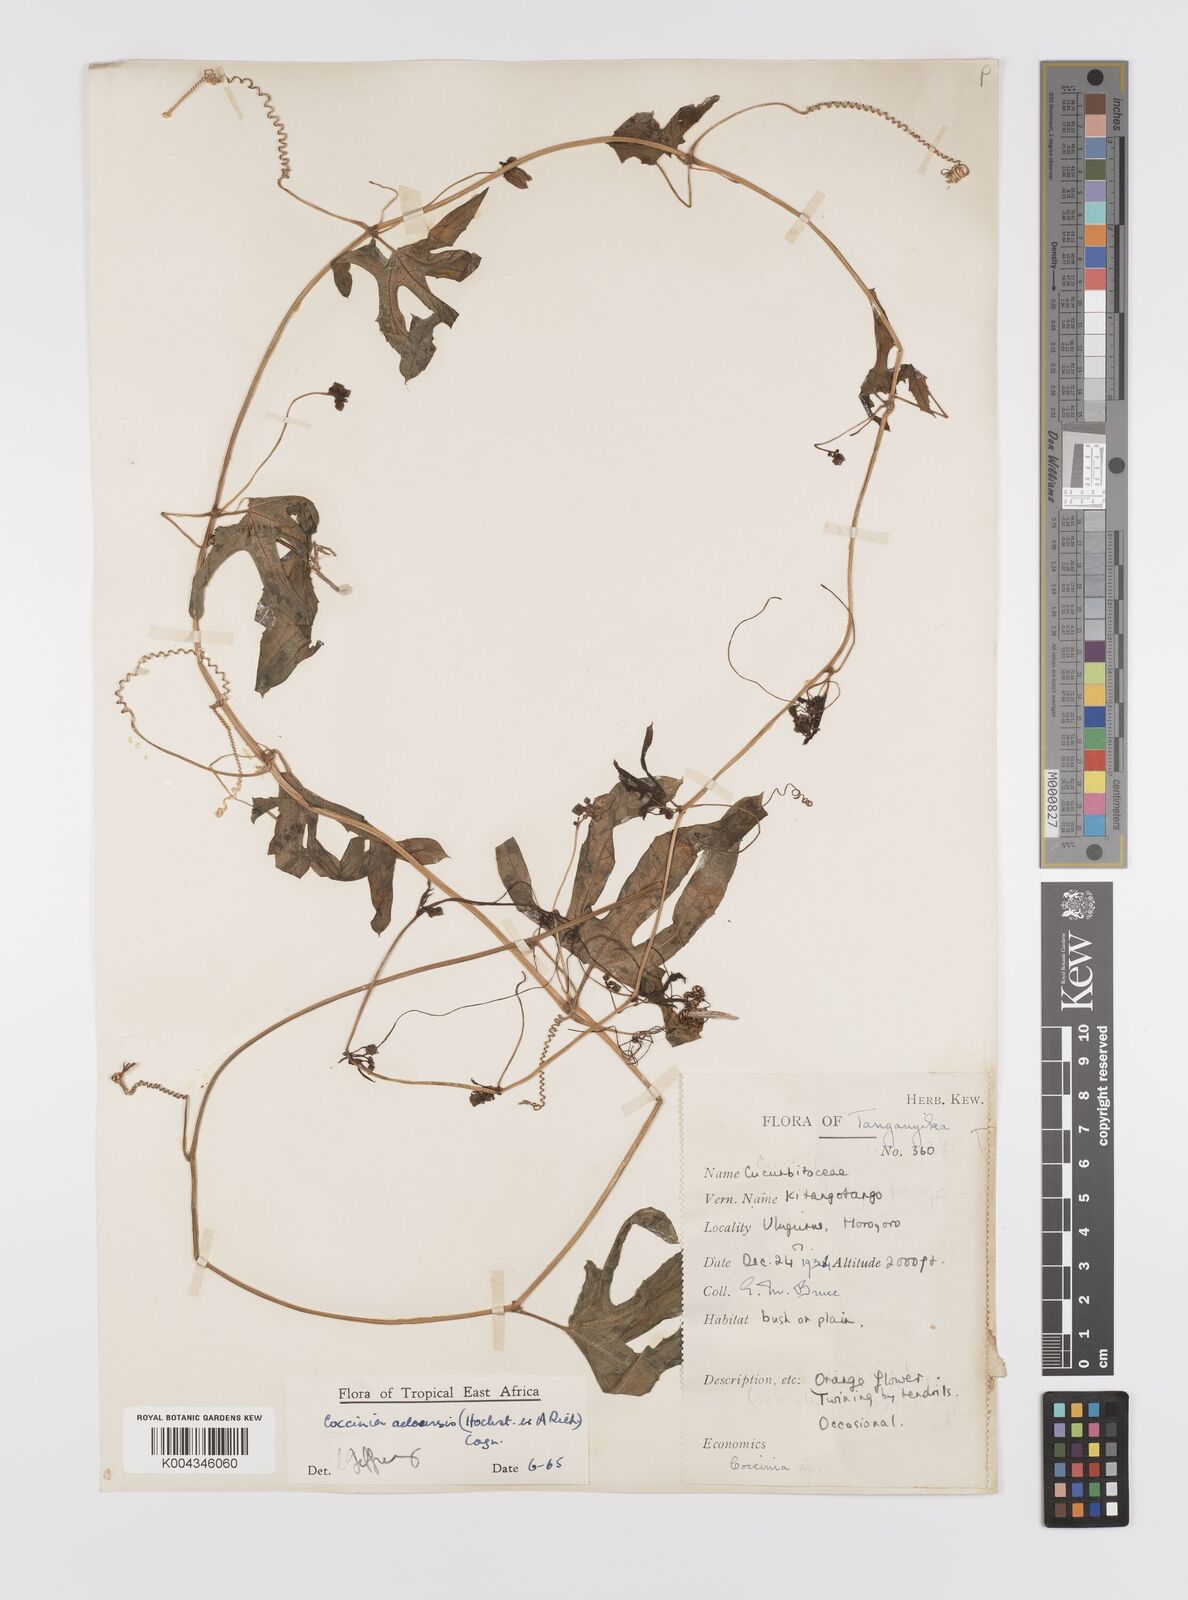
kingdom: Plantae
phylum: Tracheophyta
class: Magnoliopsida
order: Cucurbitales
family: Cucurbitaceae
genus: Coccinia
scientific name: Coccinia adoensis
